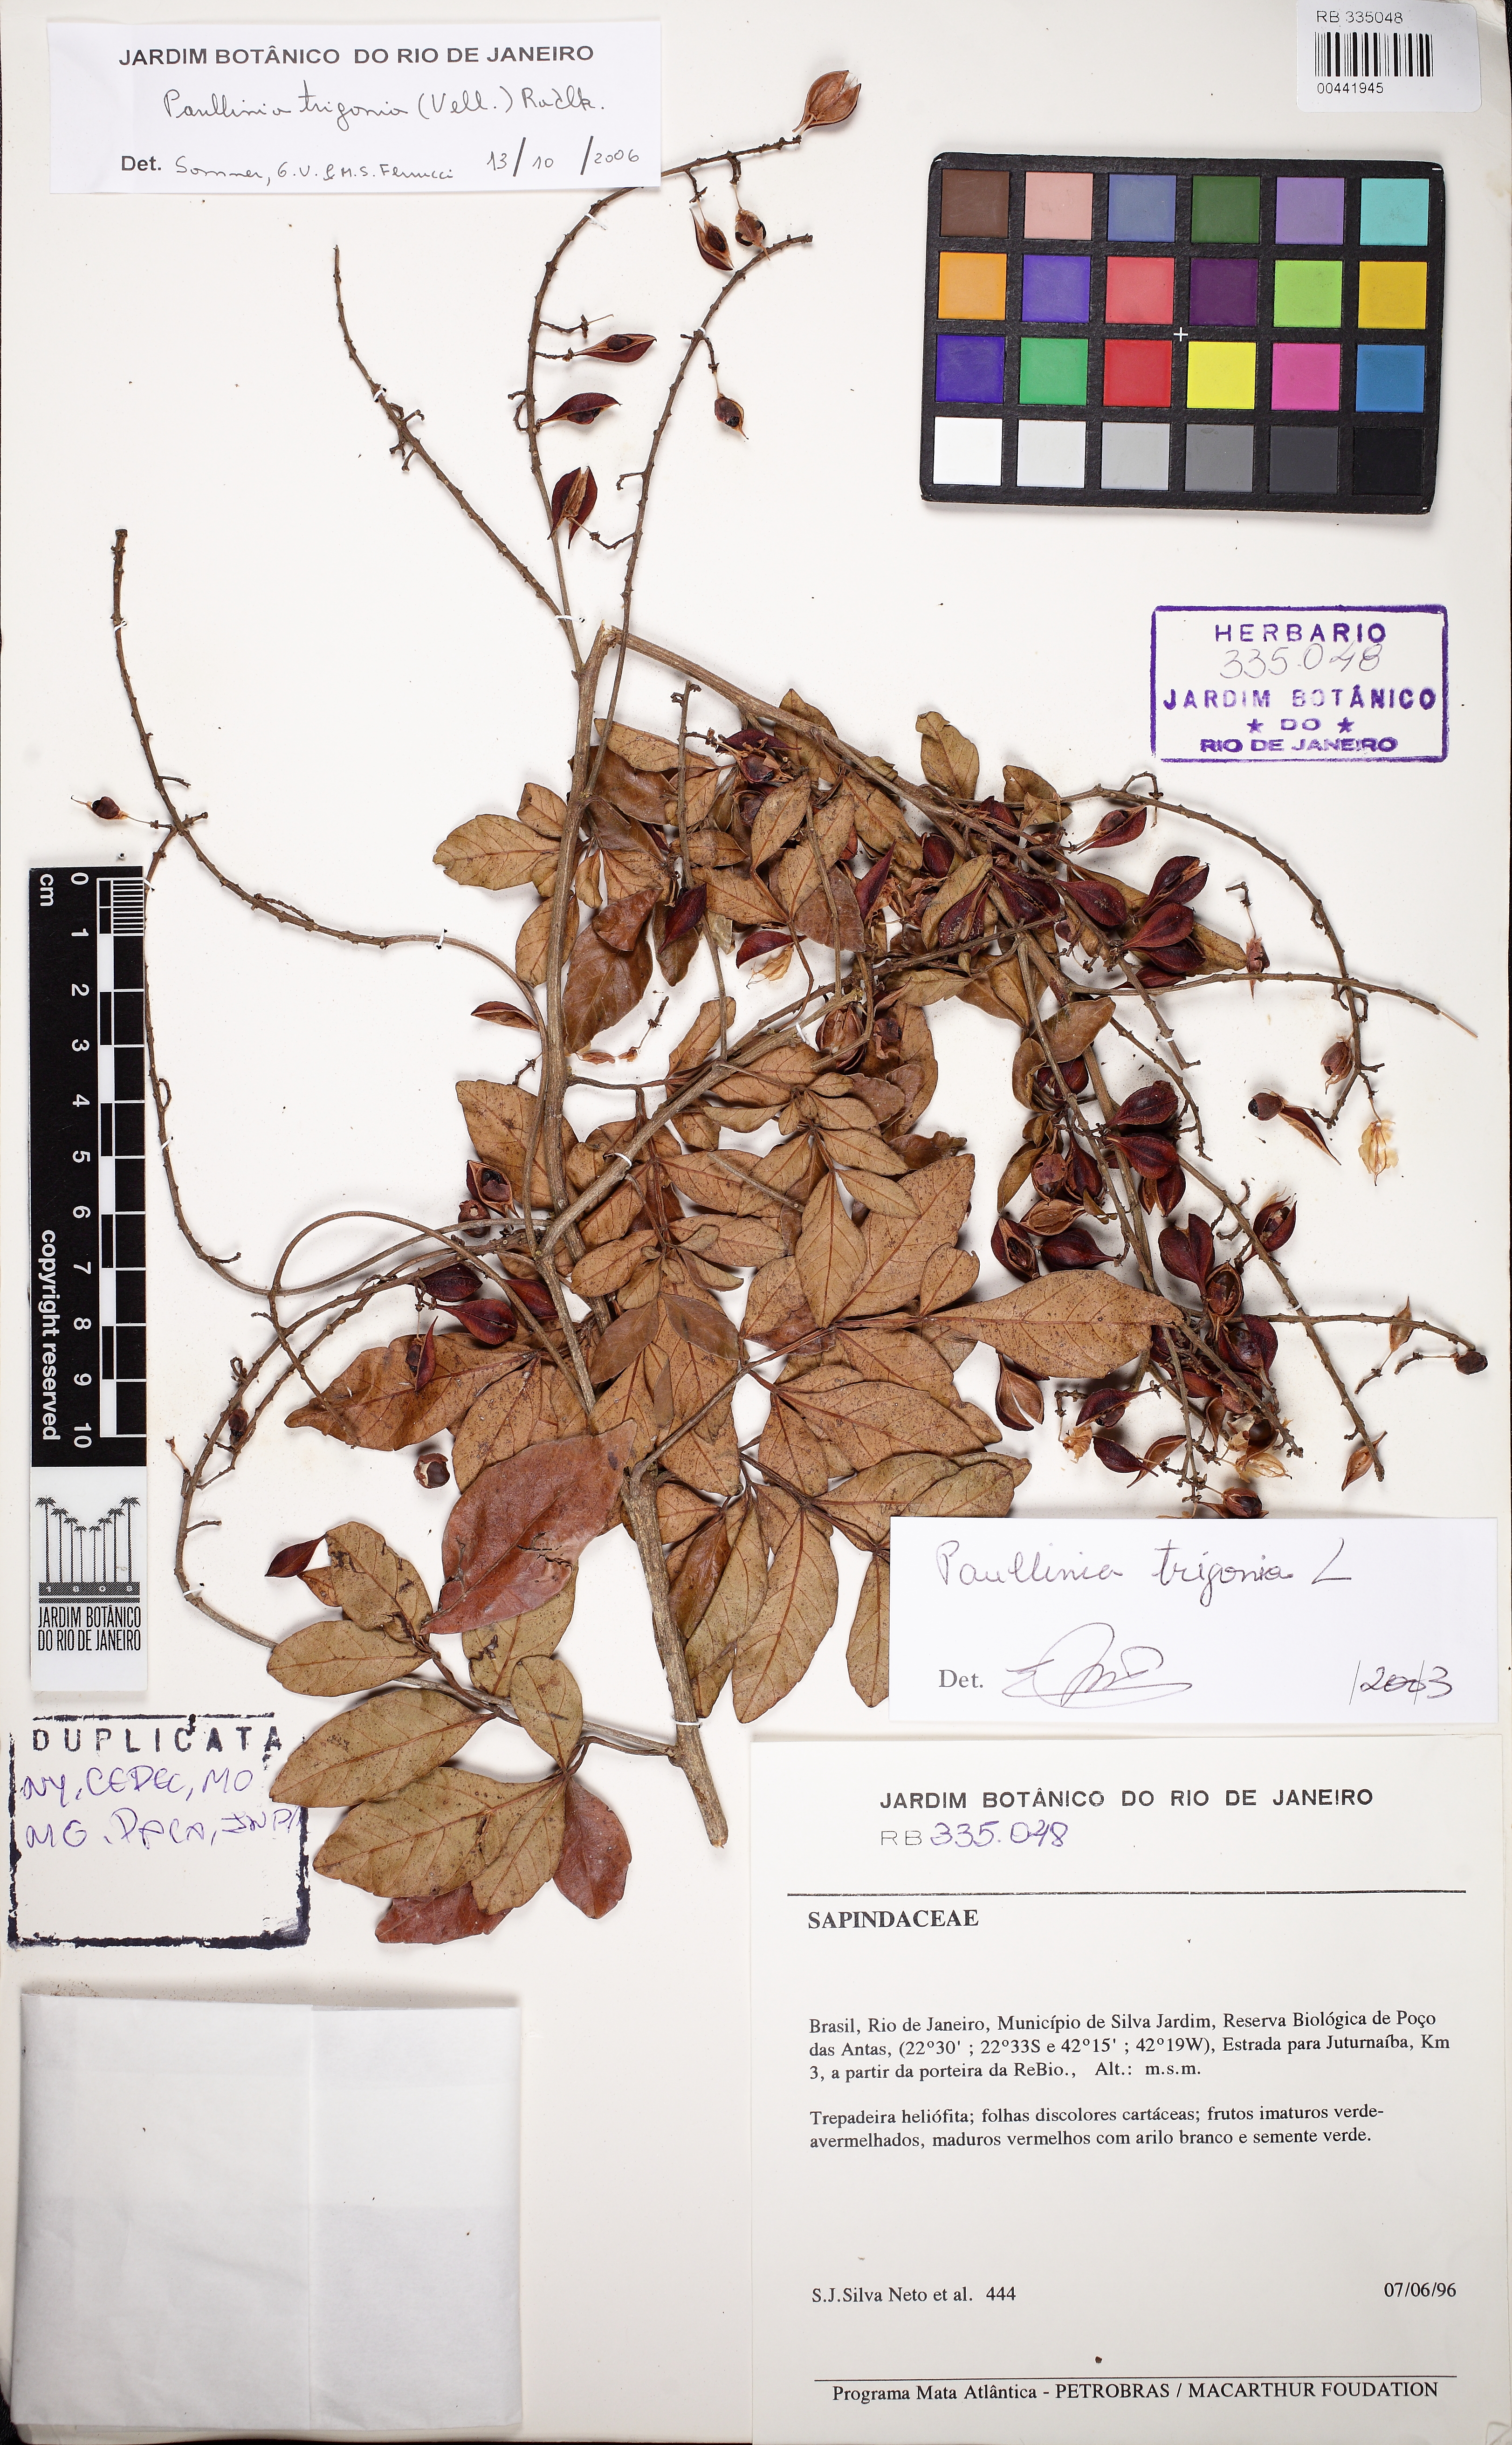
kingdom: Plantae
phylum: Tracheophyta
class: Magnoliopsida
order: Sapindales
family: Sapindaceae
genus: Paullinia
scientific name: Paullinia trigonia
